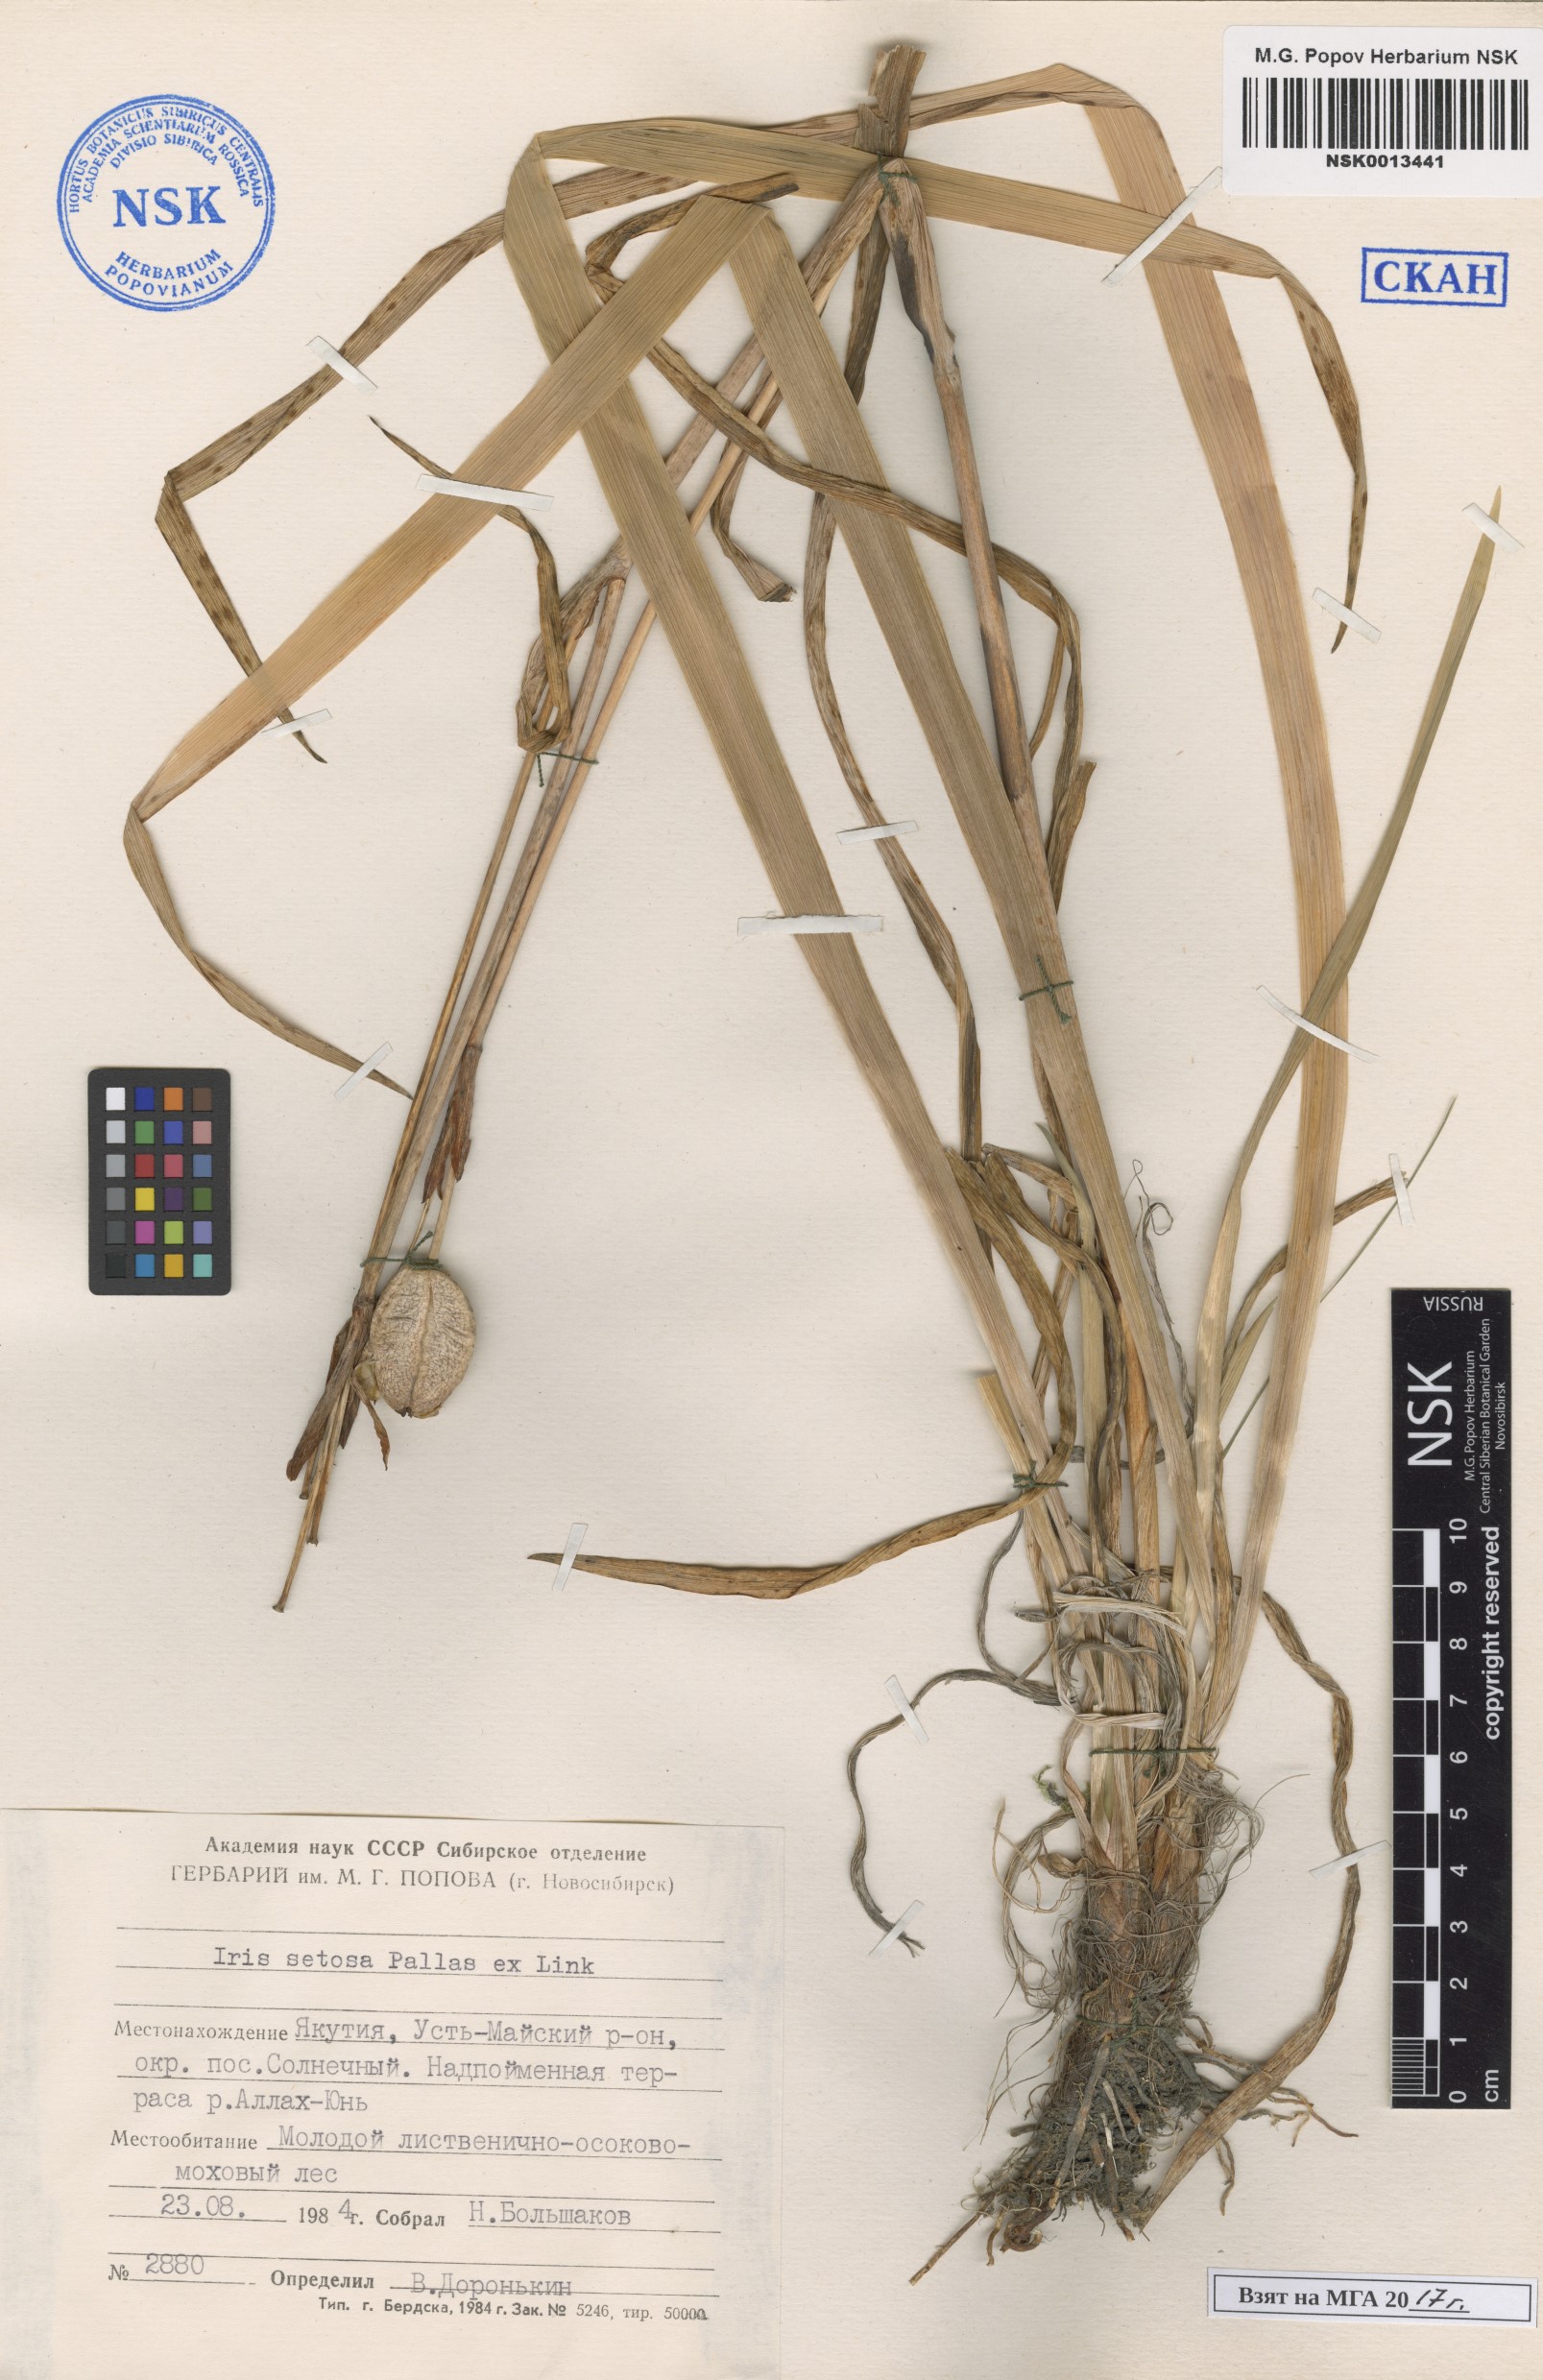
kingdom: Plantae
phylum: Tracheophyta
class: Liliopsida
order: Asparagales
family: Iridaceae
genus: Iris
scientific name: Iris setosa
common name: Arctic blue flag
